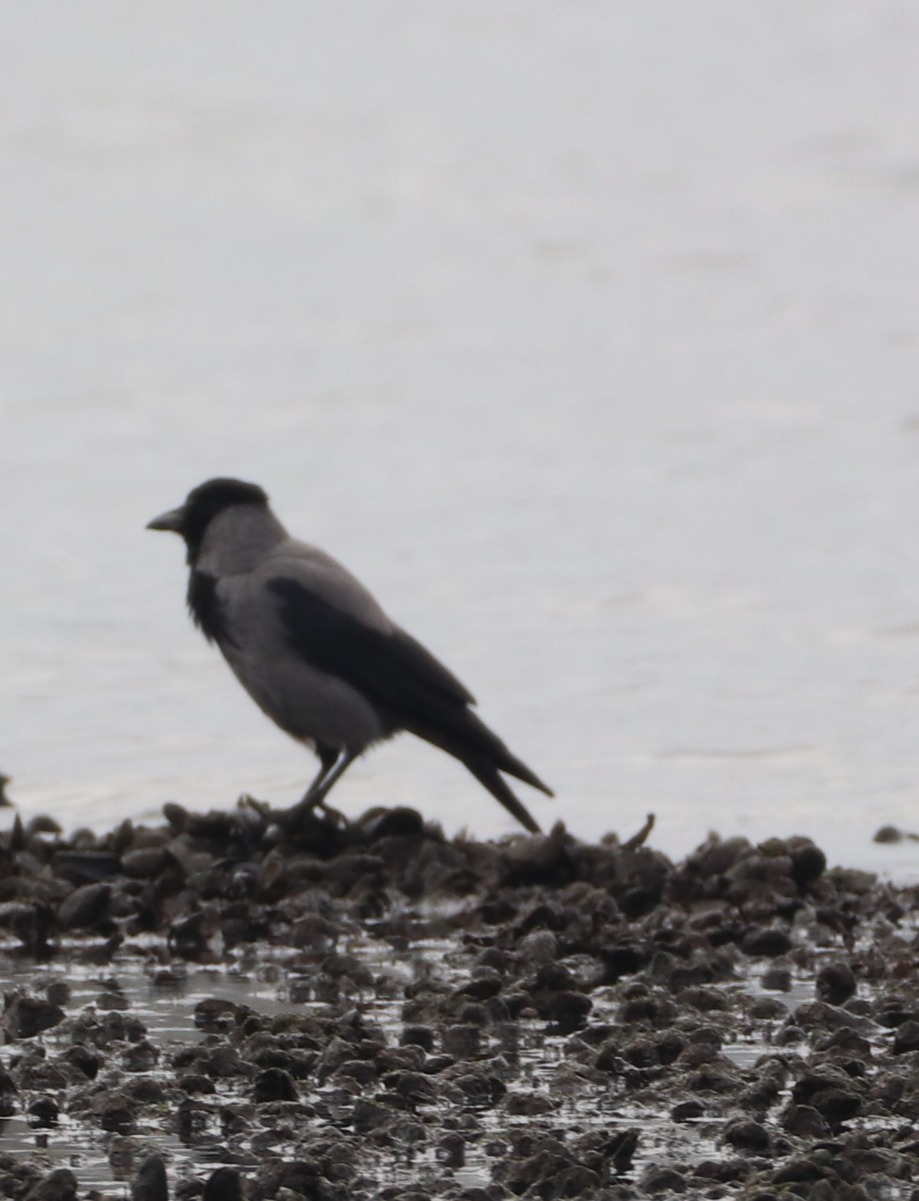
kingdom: Animalia
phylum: Chordata
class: Aves
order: Passeriformes
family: Corvidae
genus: Corvus
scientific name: Corvus cornix
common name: Gråkrage
